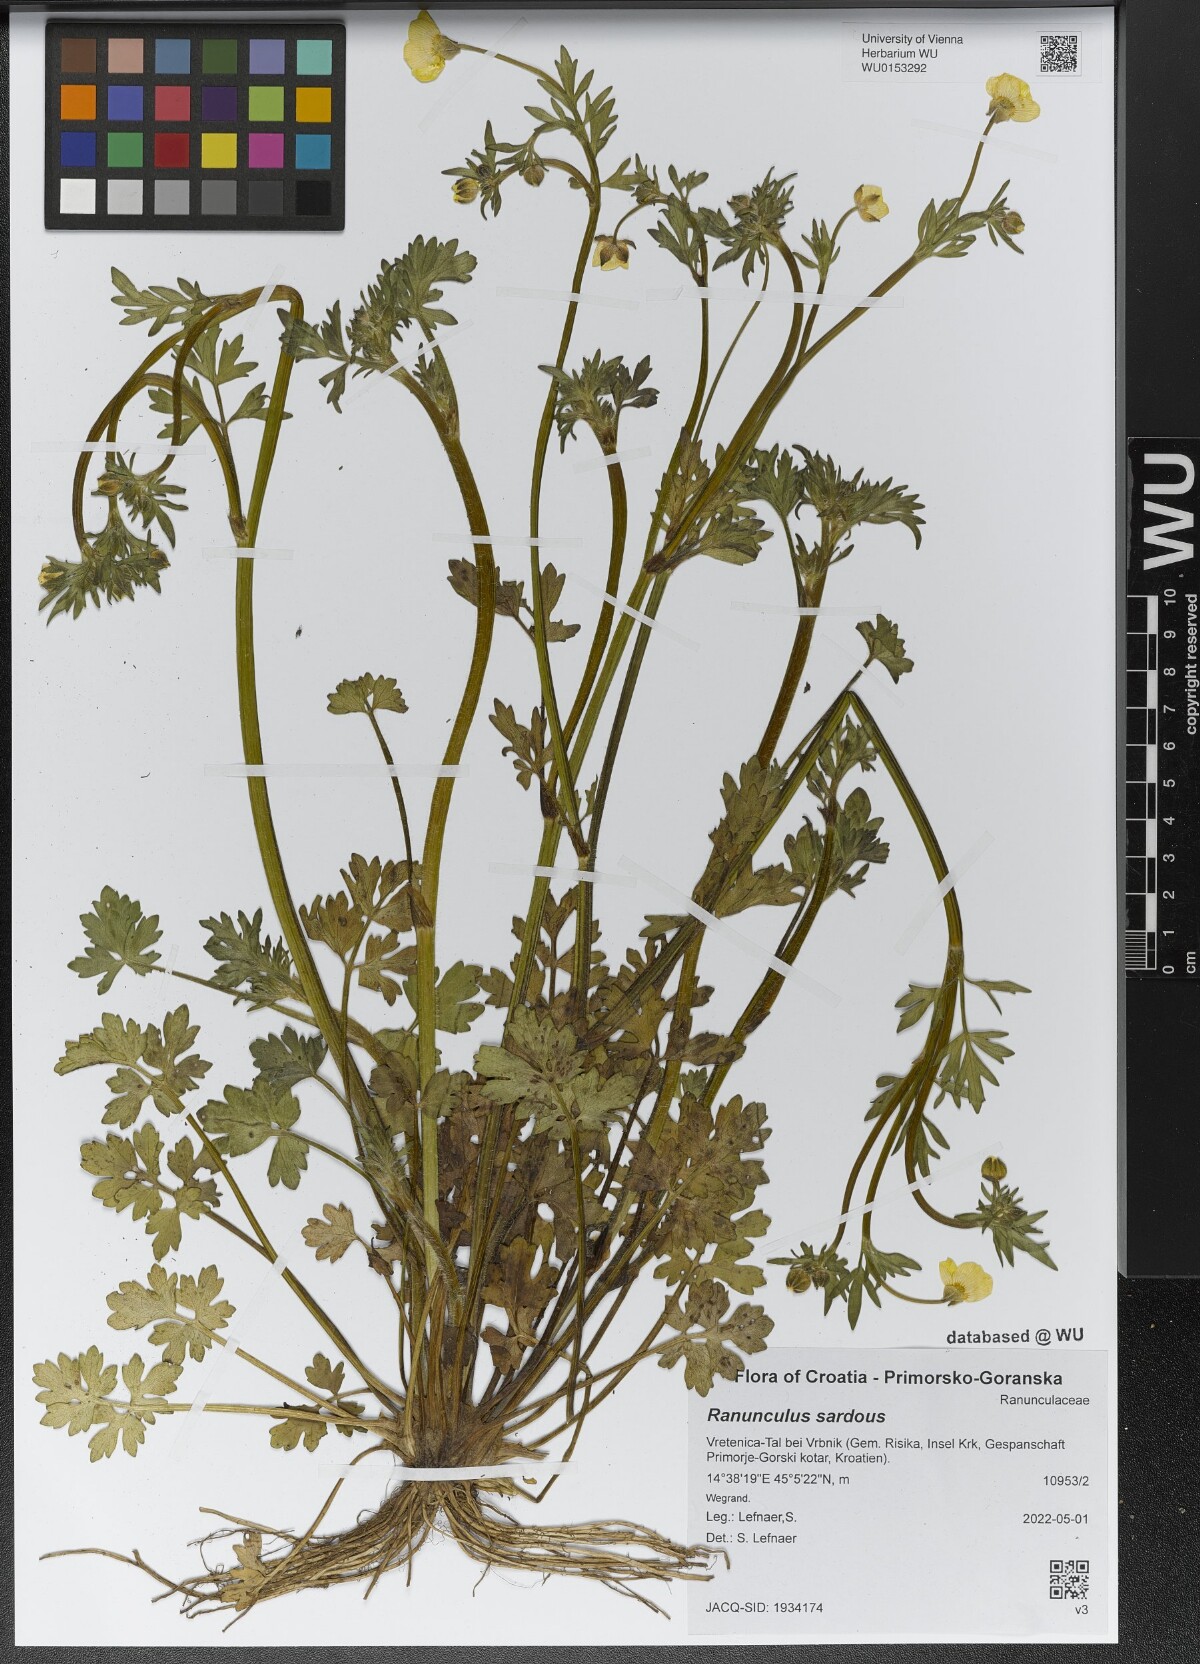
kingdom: Plantae
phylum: Tracheophyta
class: Magnoliopsida
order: Ranunculales
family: Ranunculaceae
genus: Ranunculus
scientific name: Ranunculus sardous
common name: Hairy buttercup
